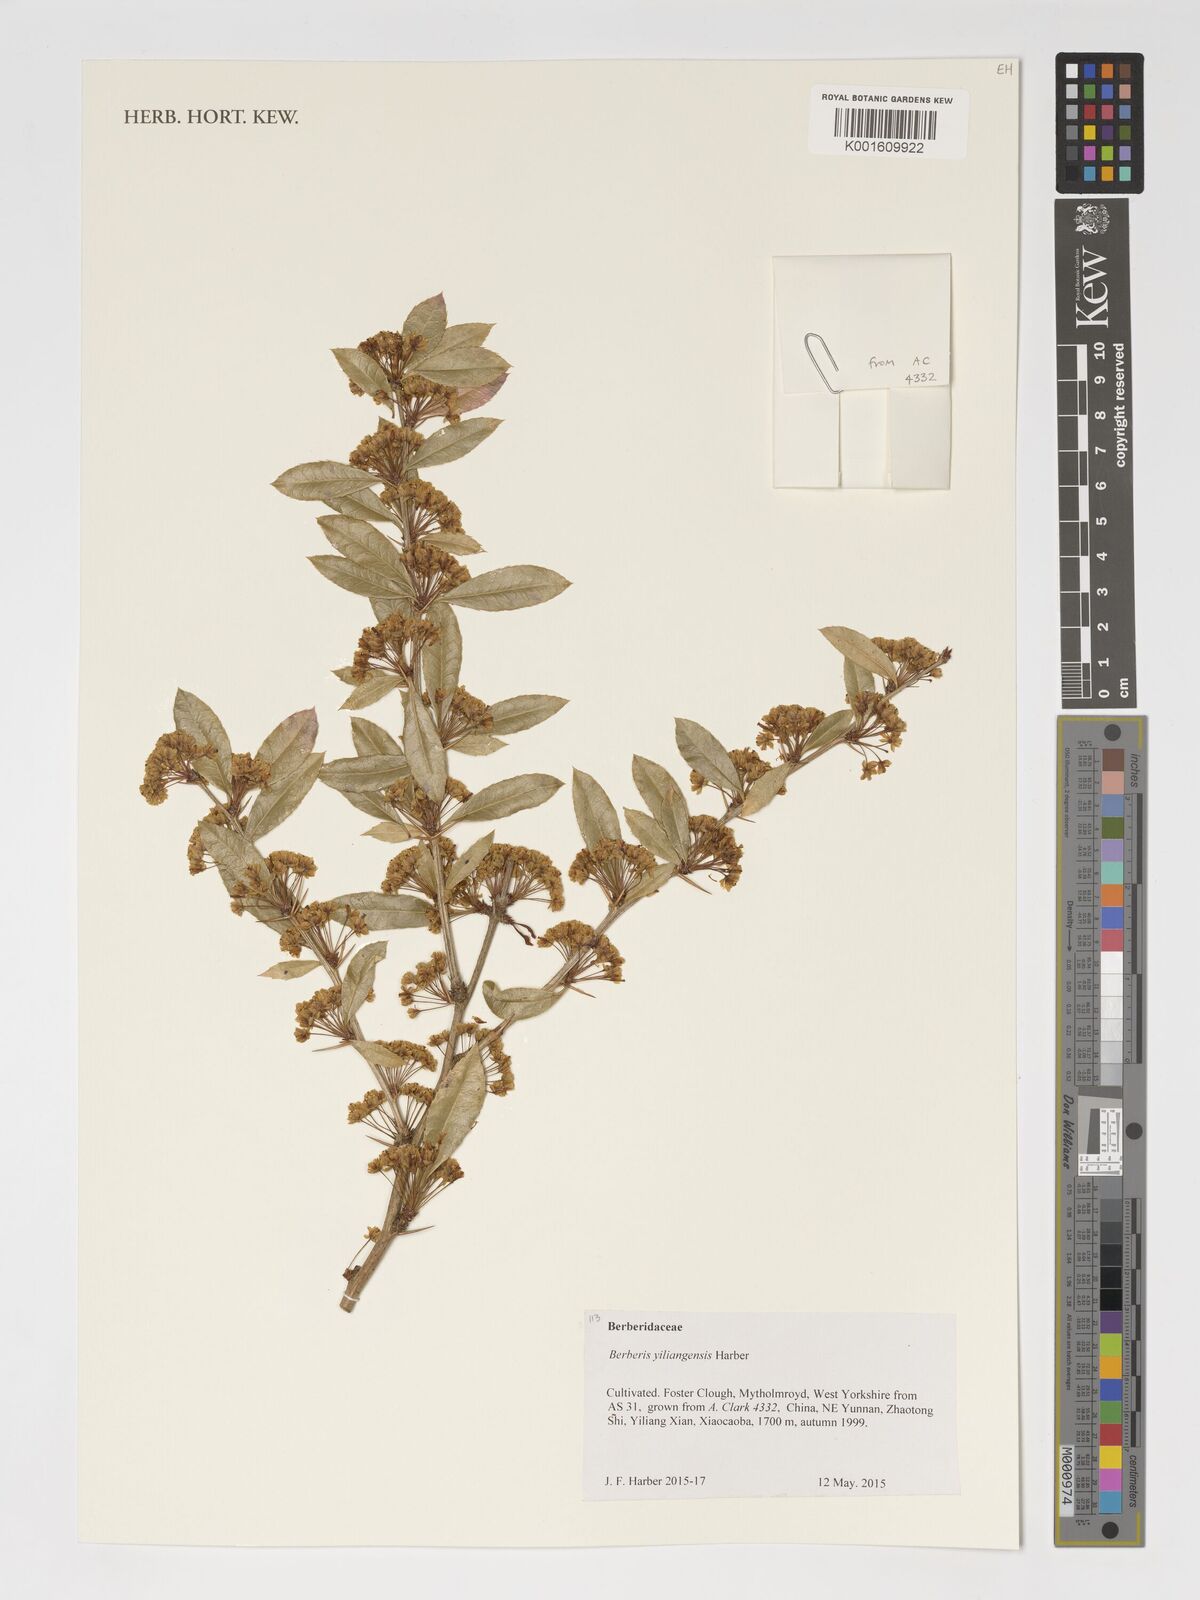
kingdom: Plantae
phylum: Tracheophyta
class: Magnoliopsida
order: Ranunculales
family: Berberidaceae
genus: Berberis
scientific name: Berberis yiliangensis
